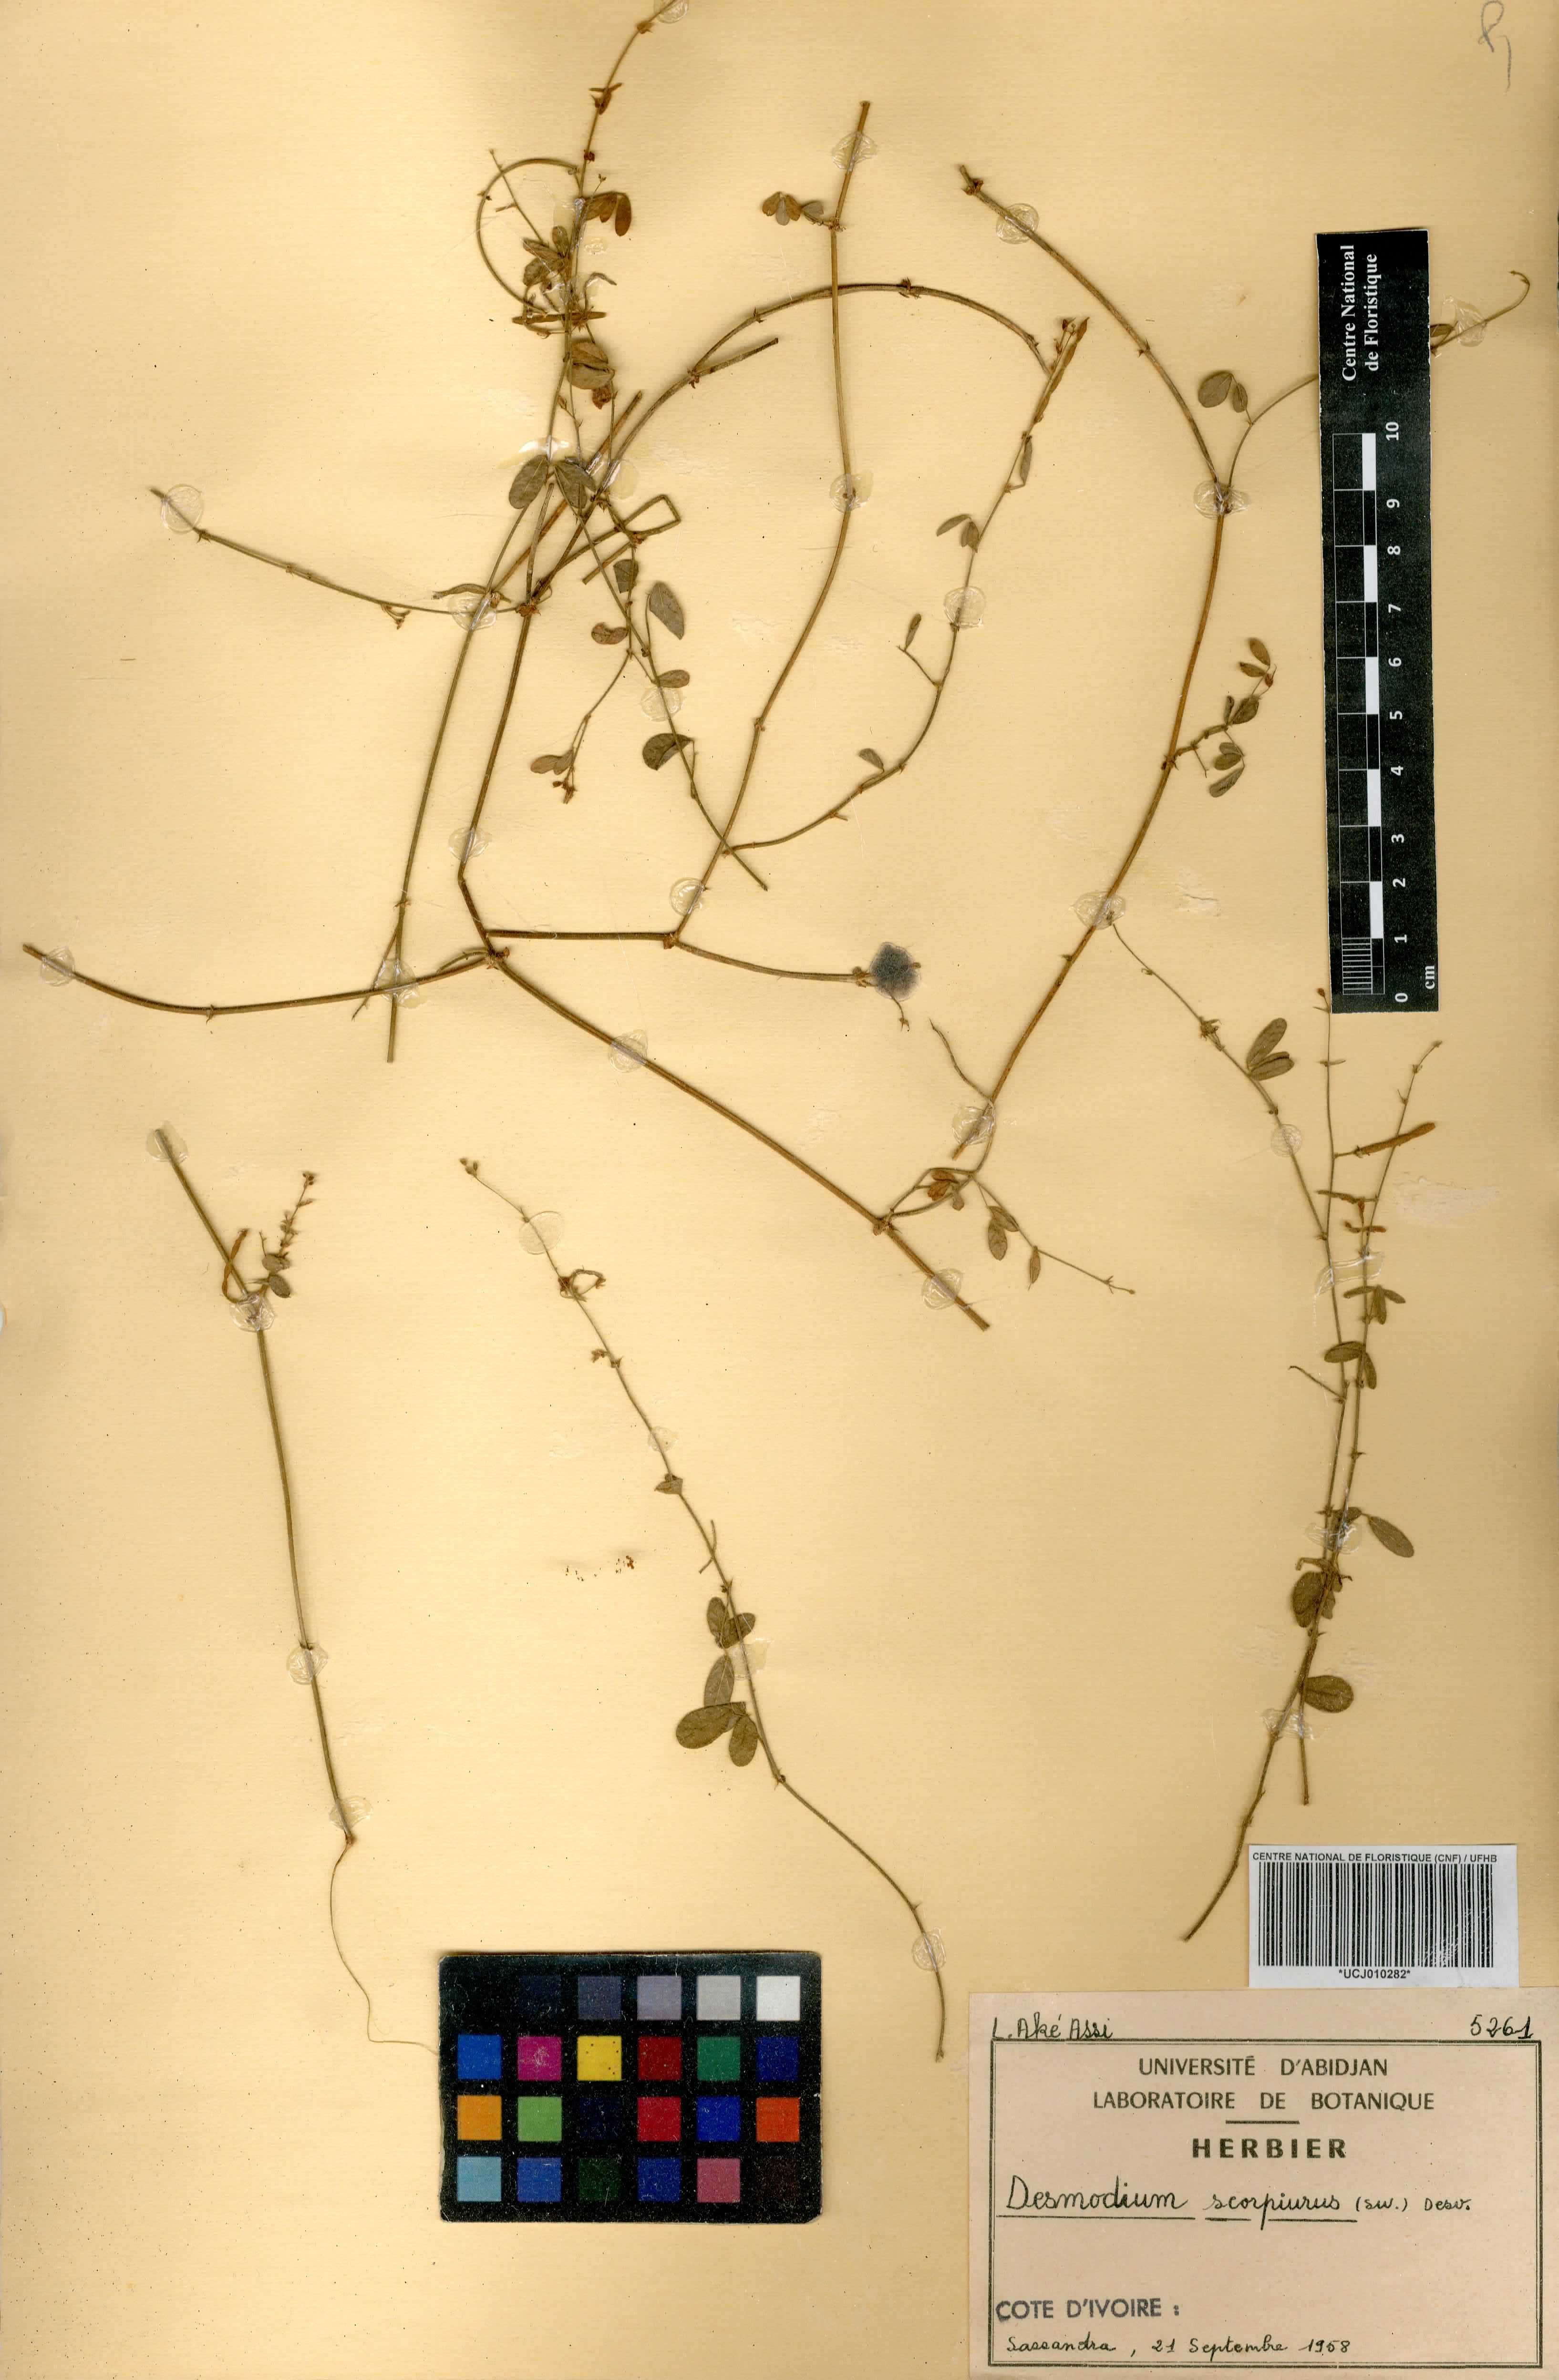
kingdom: Plantae
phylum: Tracheophyta
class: Magnoliopsida
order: Fabales
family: Fabaceae
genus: Desmodium
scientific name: Desmodium scorpiurus
